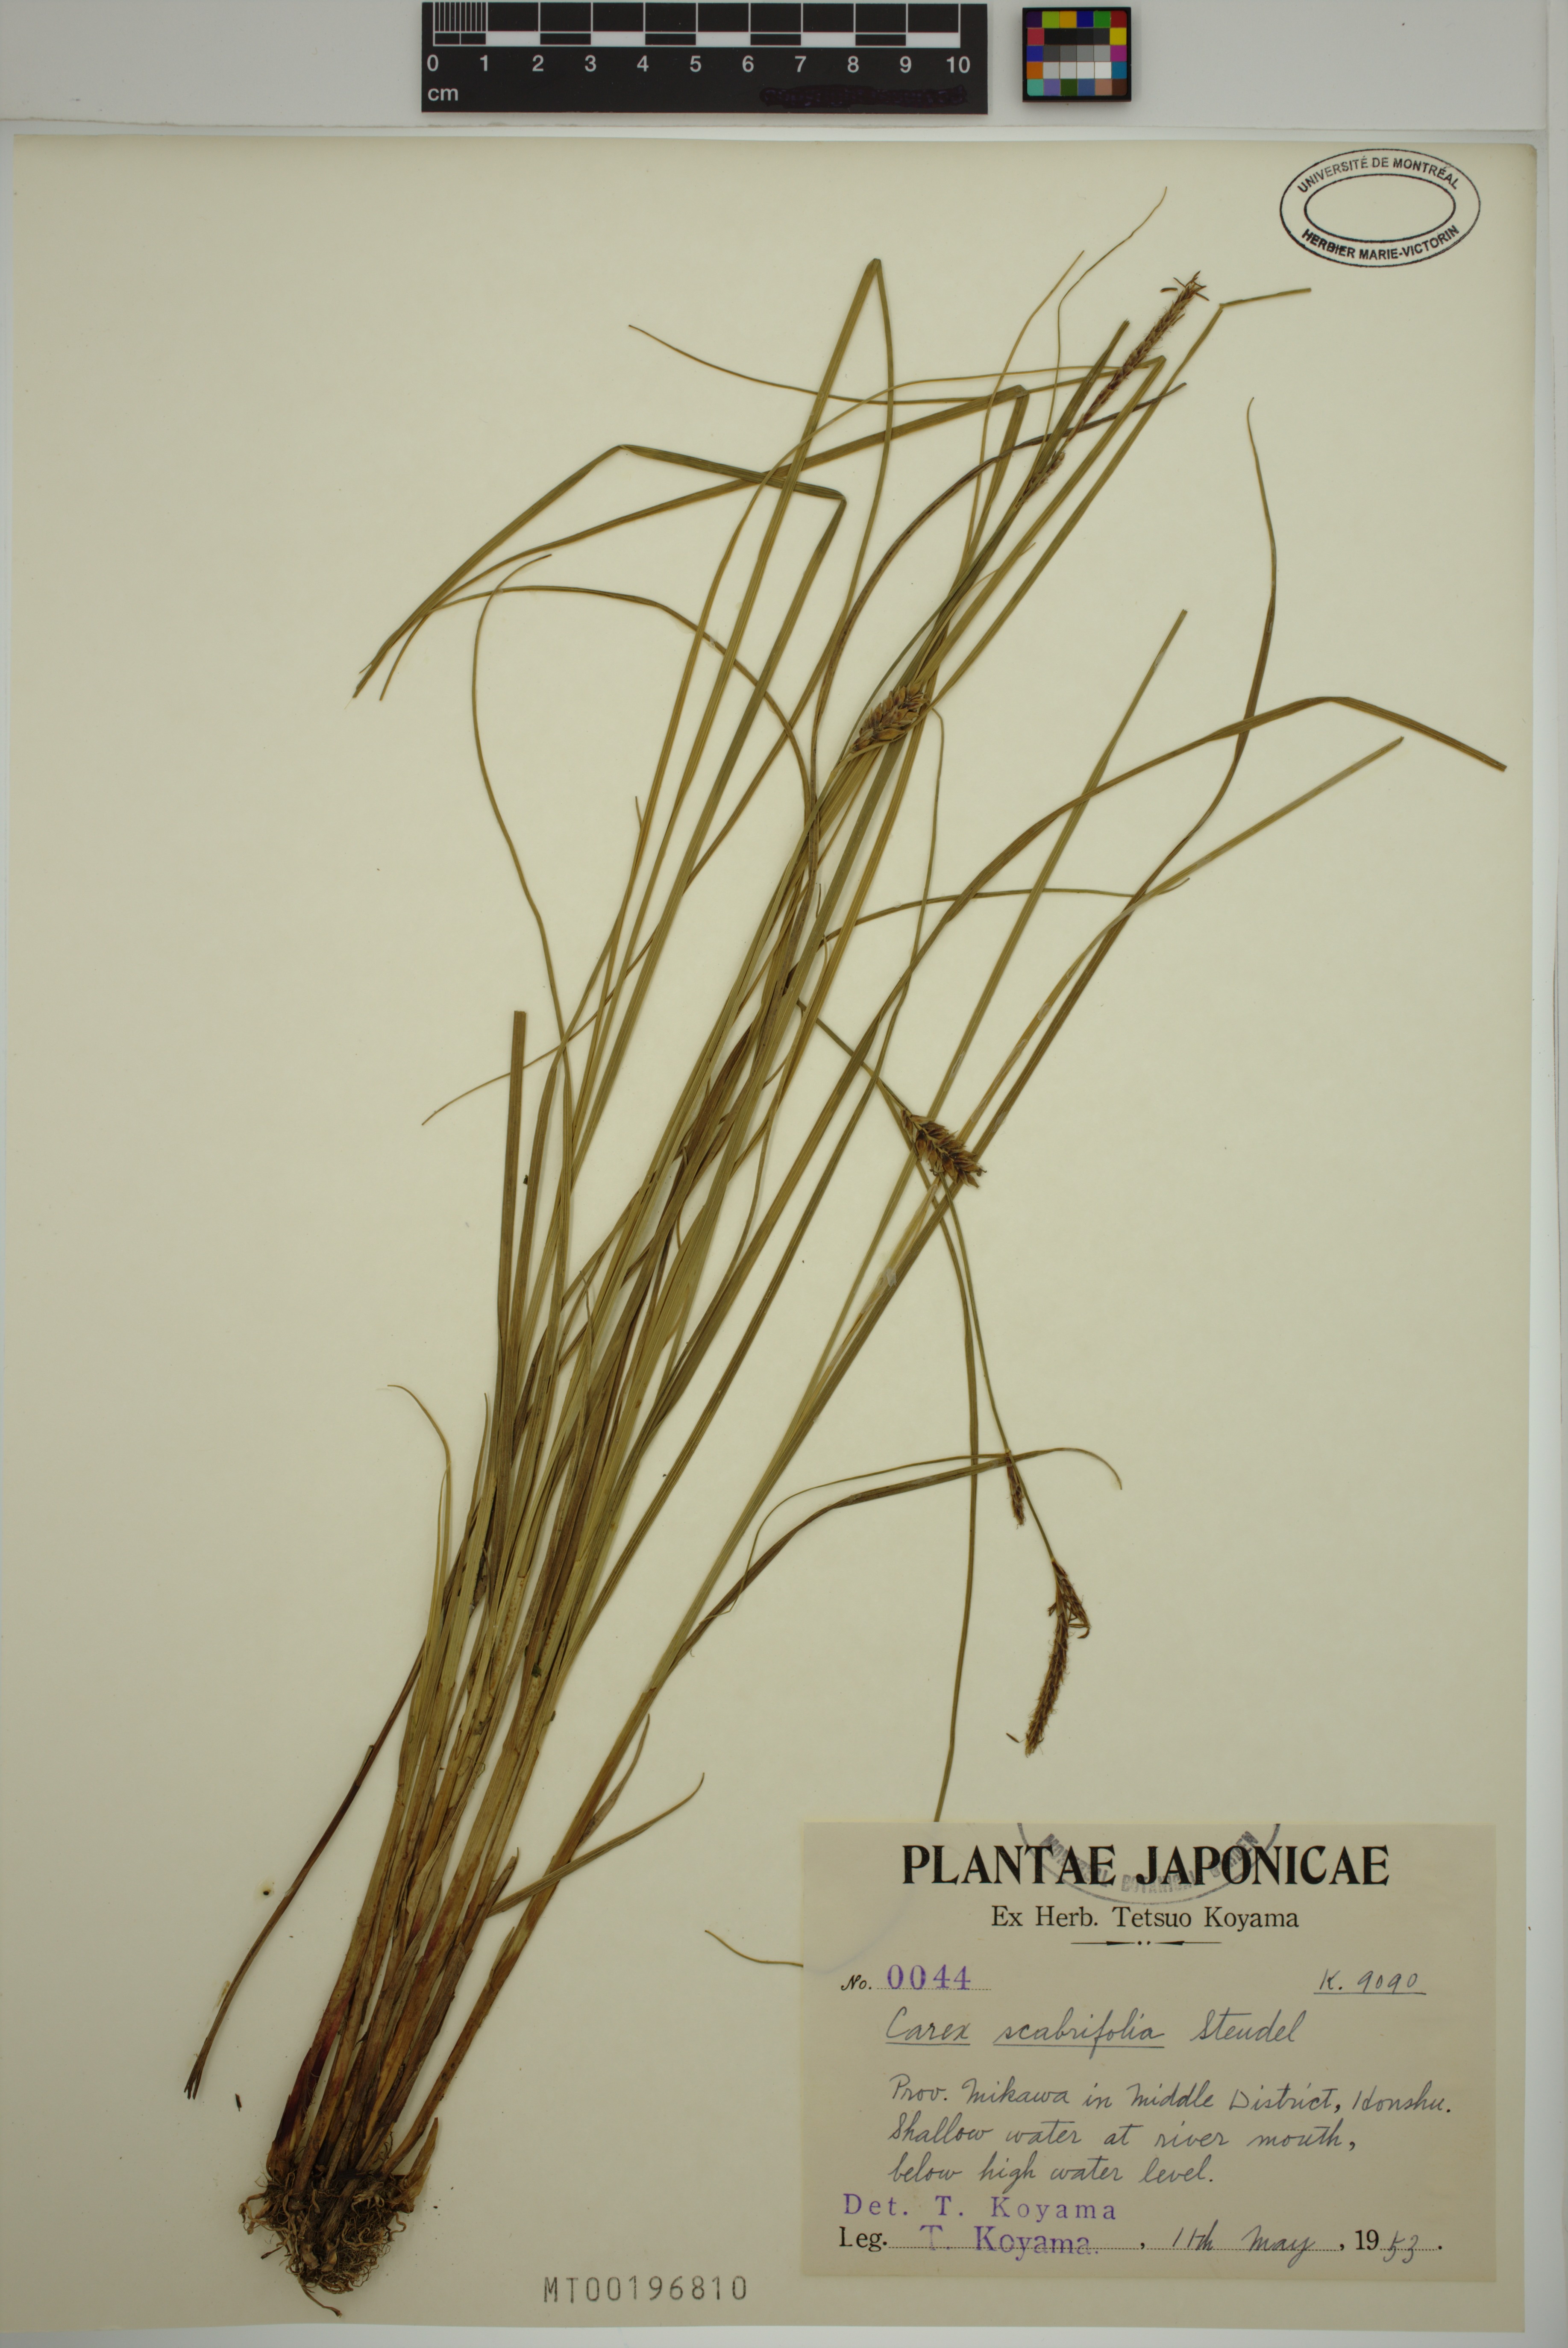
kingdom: Plantae
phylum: Tracheophyta
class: Liliopsida
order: Poales
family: Cyperaceae
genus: Carex
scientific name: Carex scabrifolia
